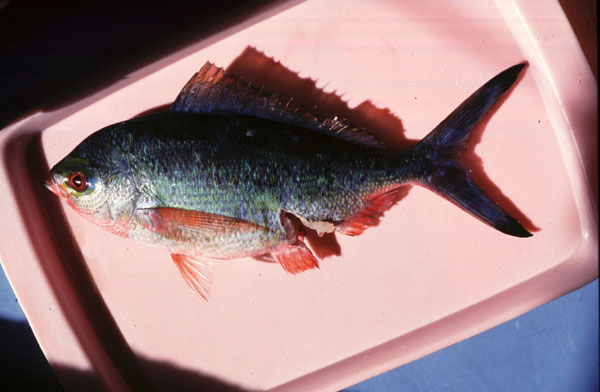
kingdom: Animalia
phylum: Chordata
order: Perciformes
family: Caesionidae
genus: Caesio
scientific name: Caesio lunaris
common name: Blue fusilier
